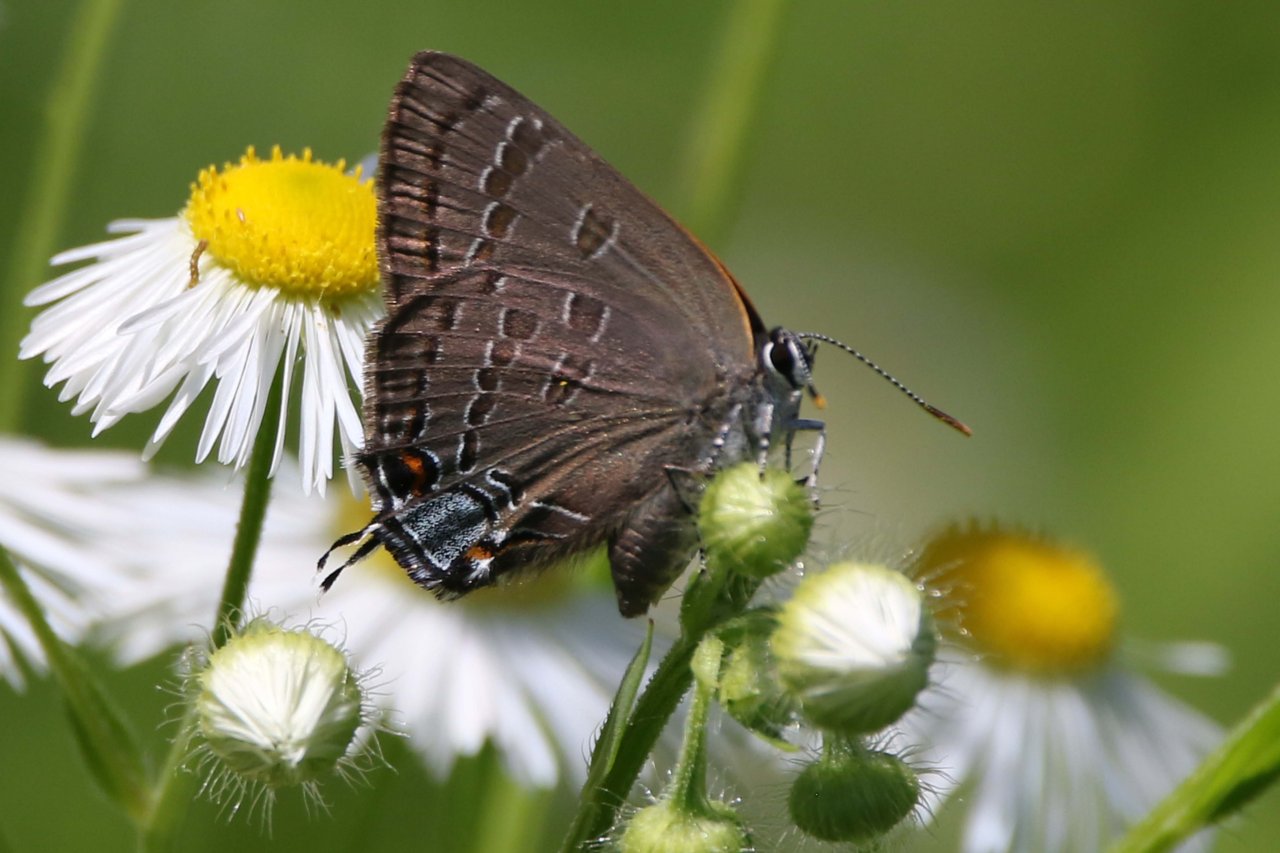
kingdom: Animalia
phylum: Arthropoda
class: Insecta
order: Lepidoptera
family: Lycaenidae
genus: Strymon
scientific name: Strymon caryaevorus
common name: Hickory Hairstreak
